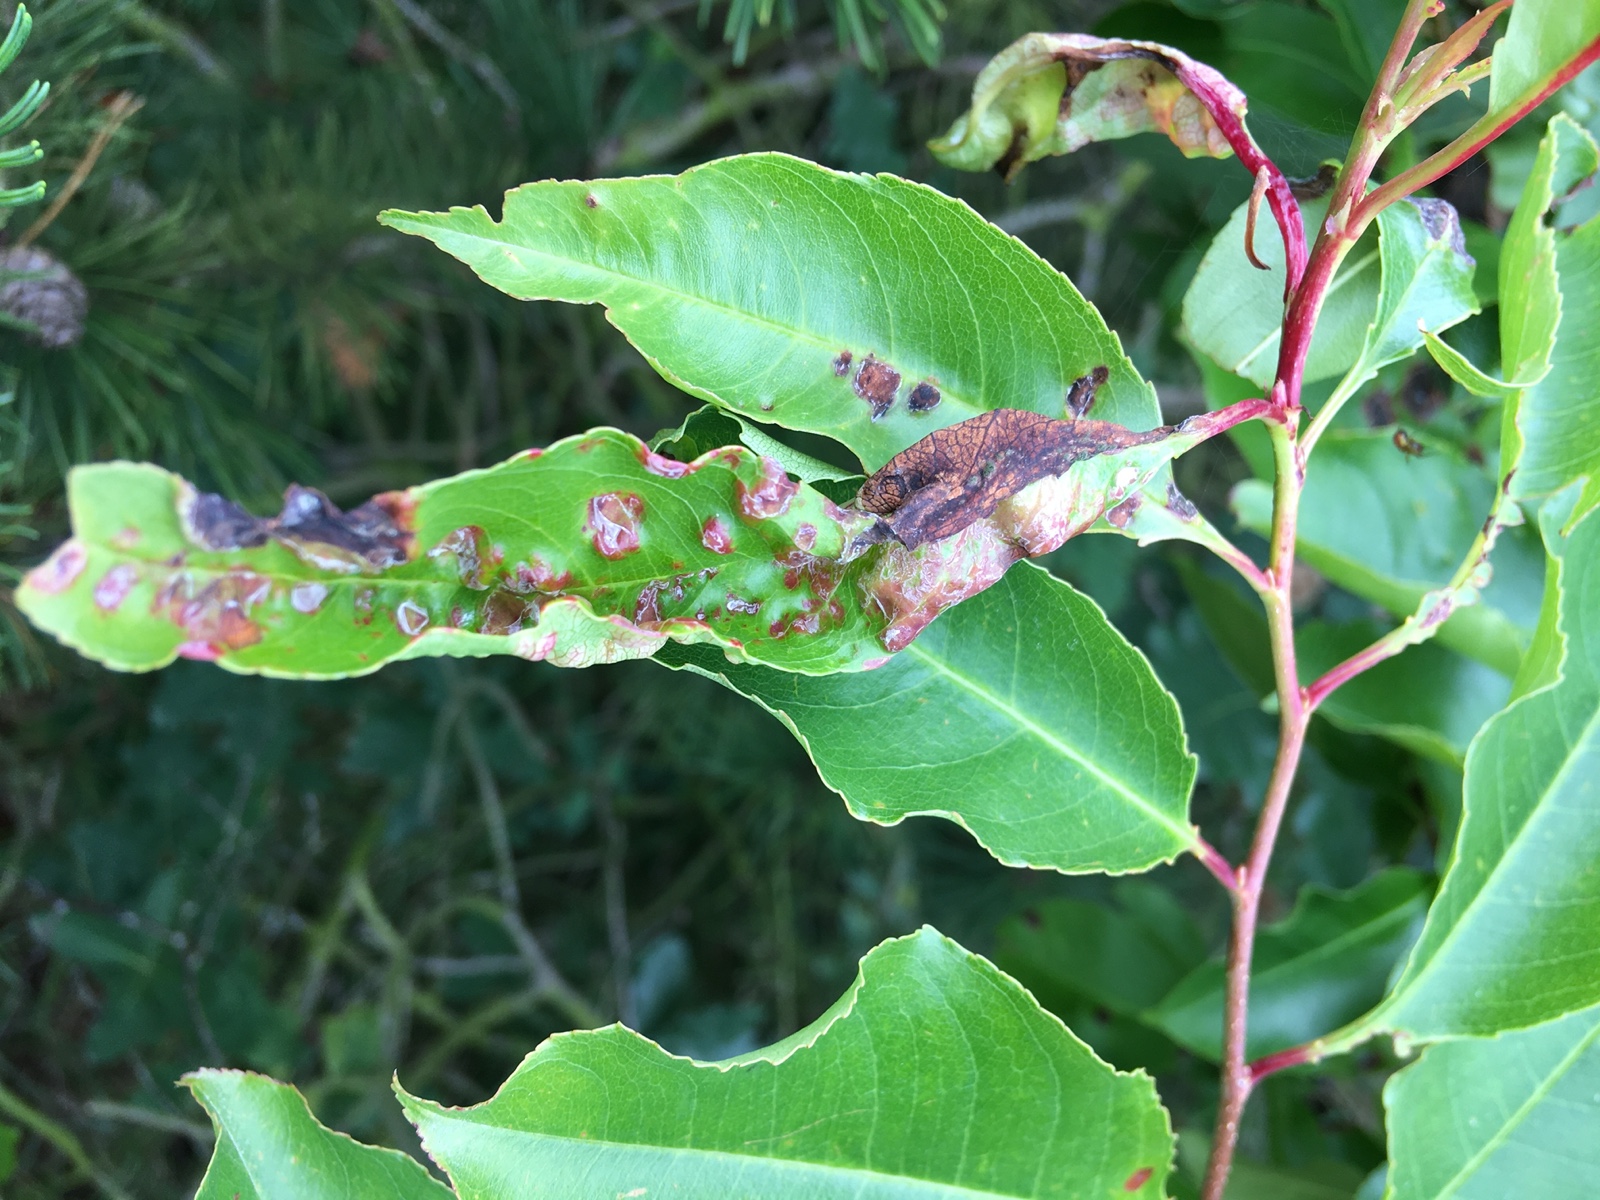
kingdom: Fungi
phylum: Ascomycota
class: Taphrinomycetes
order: Taphrinales
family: Taphrinaceae
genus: Taphrina
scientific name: Taphrina farlowii
